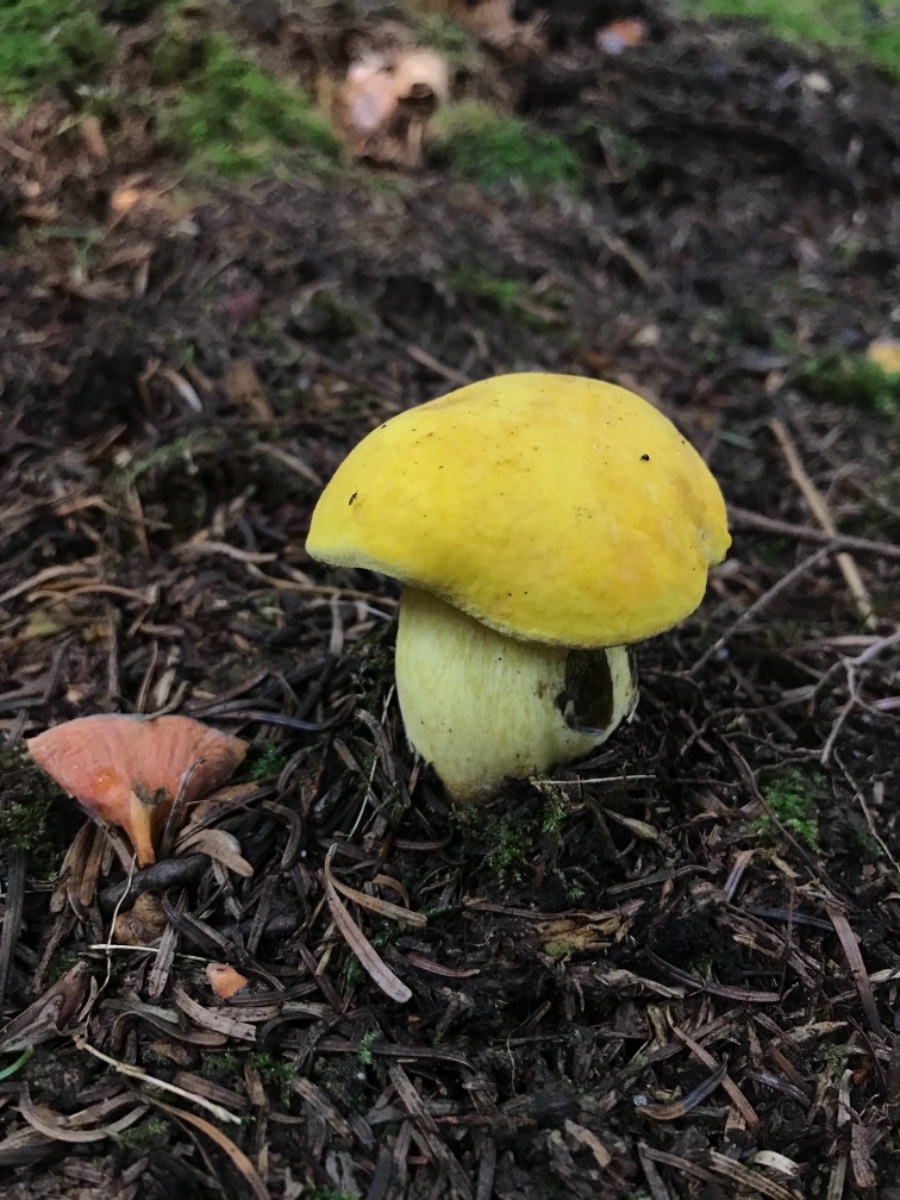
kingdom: Fungi
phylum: Basidiomycota
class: Agaricomycetes
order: Boletales
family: Boletaceae
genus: Neoboletus
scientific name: Neoboletus praestigiator
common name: gul indigorørhat
